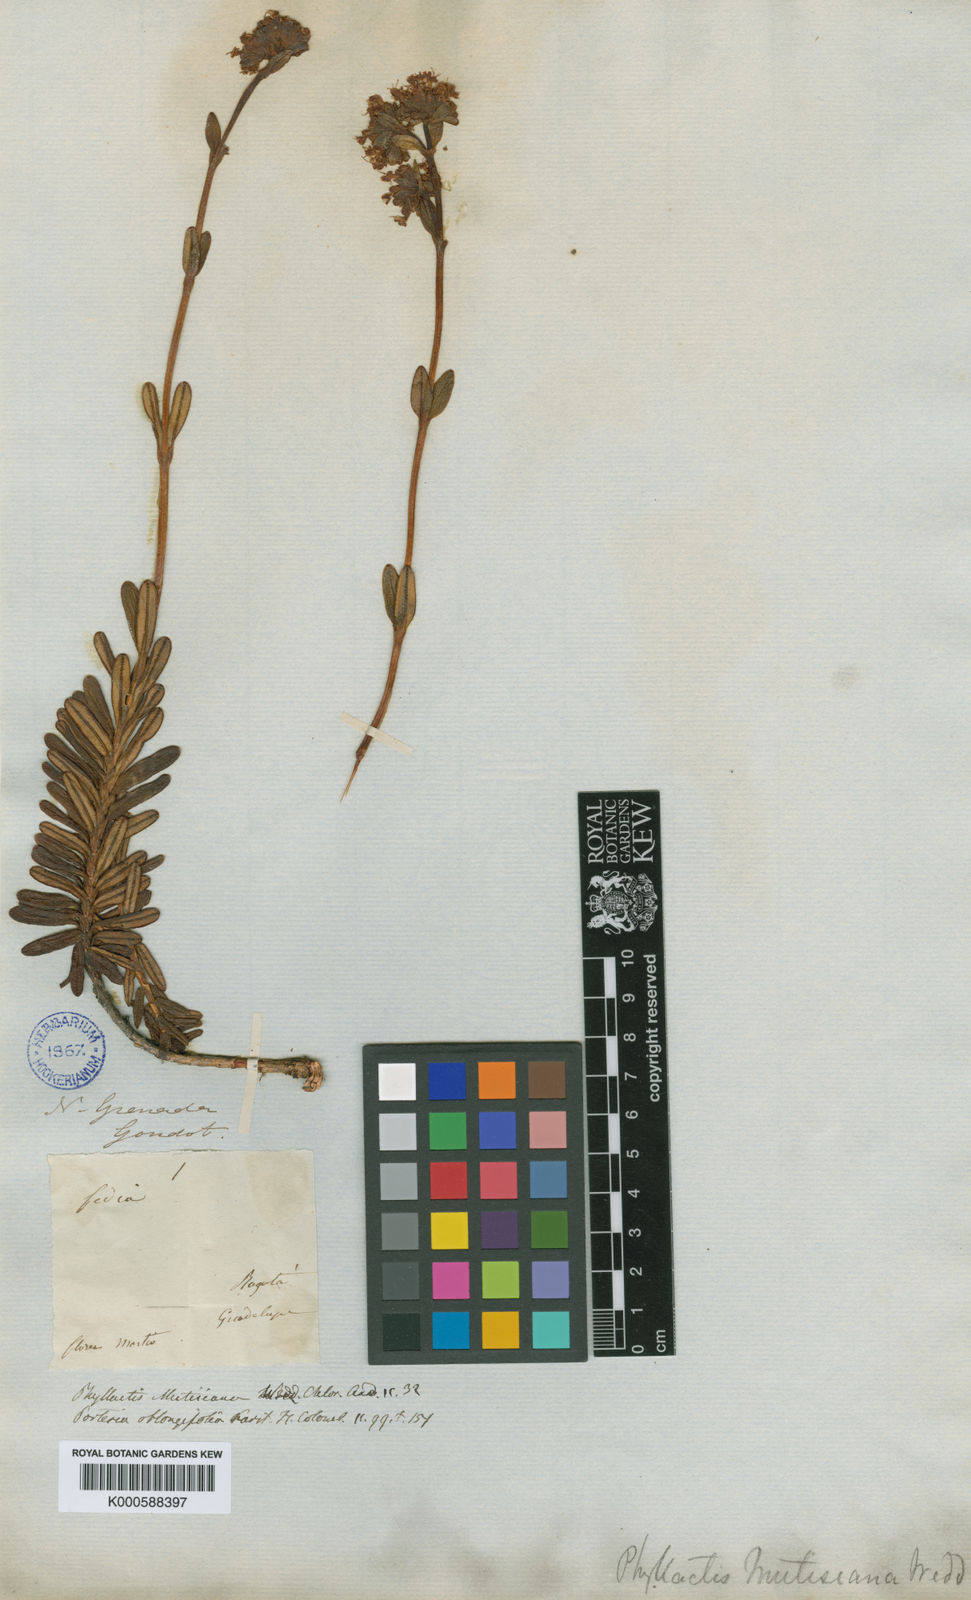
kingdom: Plantae
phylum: Tracheophyta
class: Magnoliopsida
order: Dipsacales
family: Caprifoliaceae
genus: Valeriana
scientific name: Valeriana
